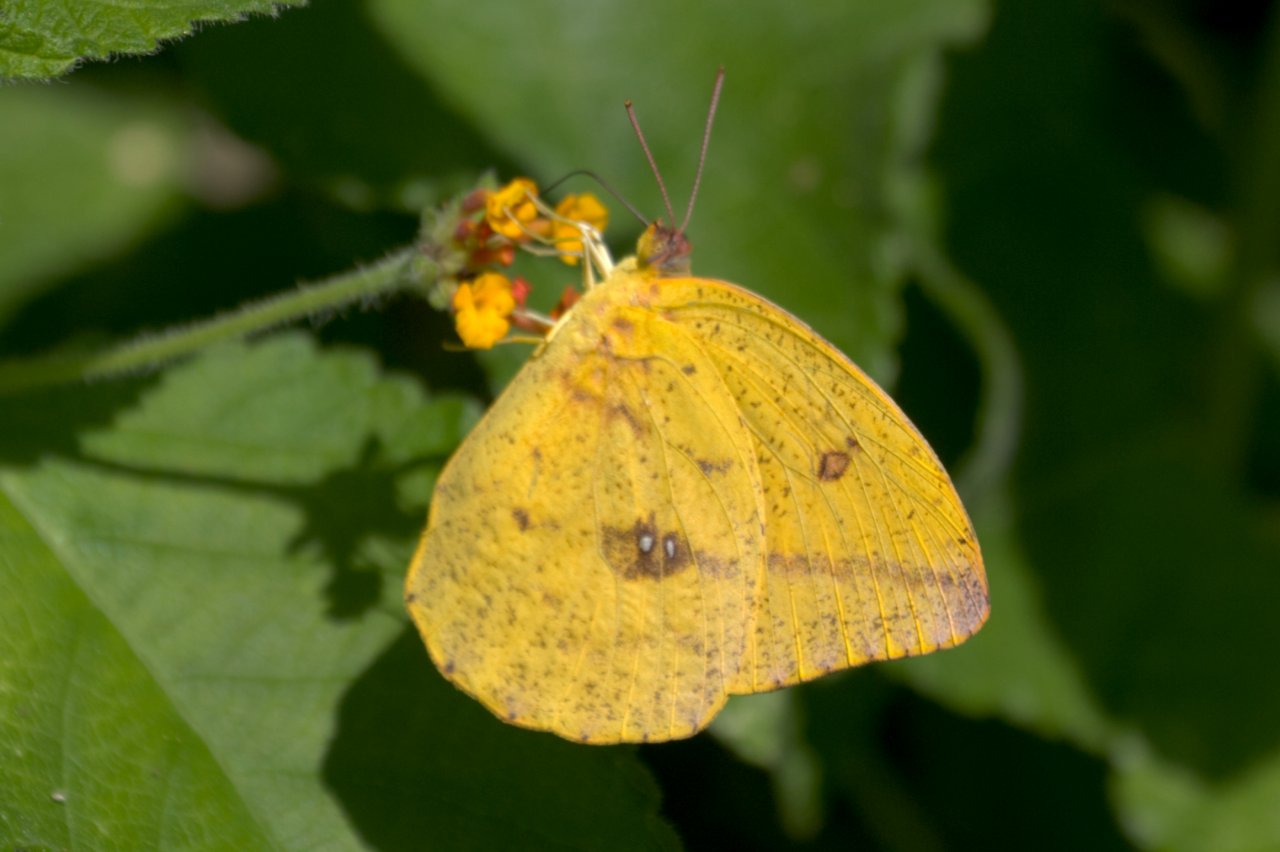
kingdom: Animalia
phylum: Arthropoda
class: Insecta
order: Lepidoptera
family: Pieridae
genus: Phoebis
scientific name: Phoebis agarithe
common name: Large Orange Sulphur
